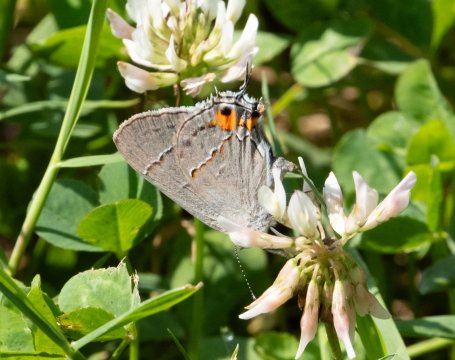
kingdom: Animalia
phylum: Arthropoda
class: Insecta
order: Lepidoptera
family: Lycaenidae
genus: Strymon
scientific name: Strymon melinus
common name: Gray Hairstreak
